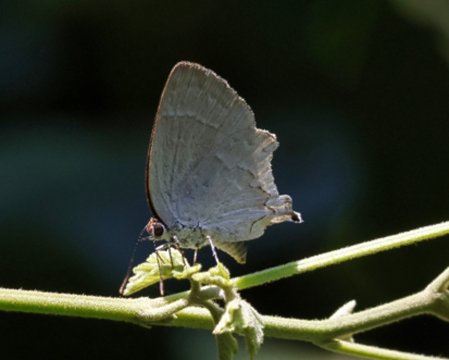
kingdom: Animalia
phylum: Arthropoda
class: Insecta
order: Lepidoptera
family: Lycaenidae
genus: Ostrinotes
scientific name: Ostrinotes
